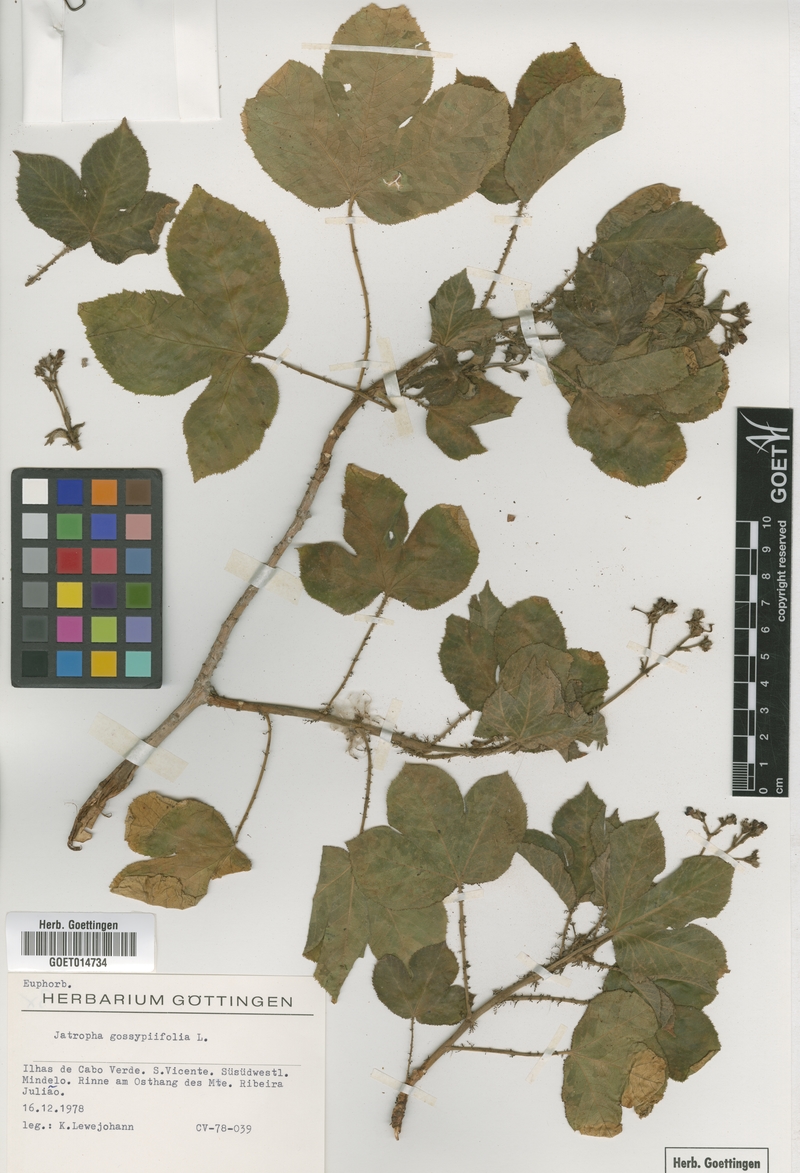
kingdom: Plantae
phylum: Tracheophyta
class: Magnoliopsida
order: Malpighiales
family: Euphorbiaceae
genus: Jatropha
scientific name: Jatropha gossypiifolia
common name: Bellyache bush
